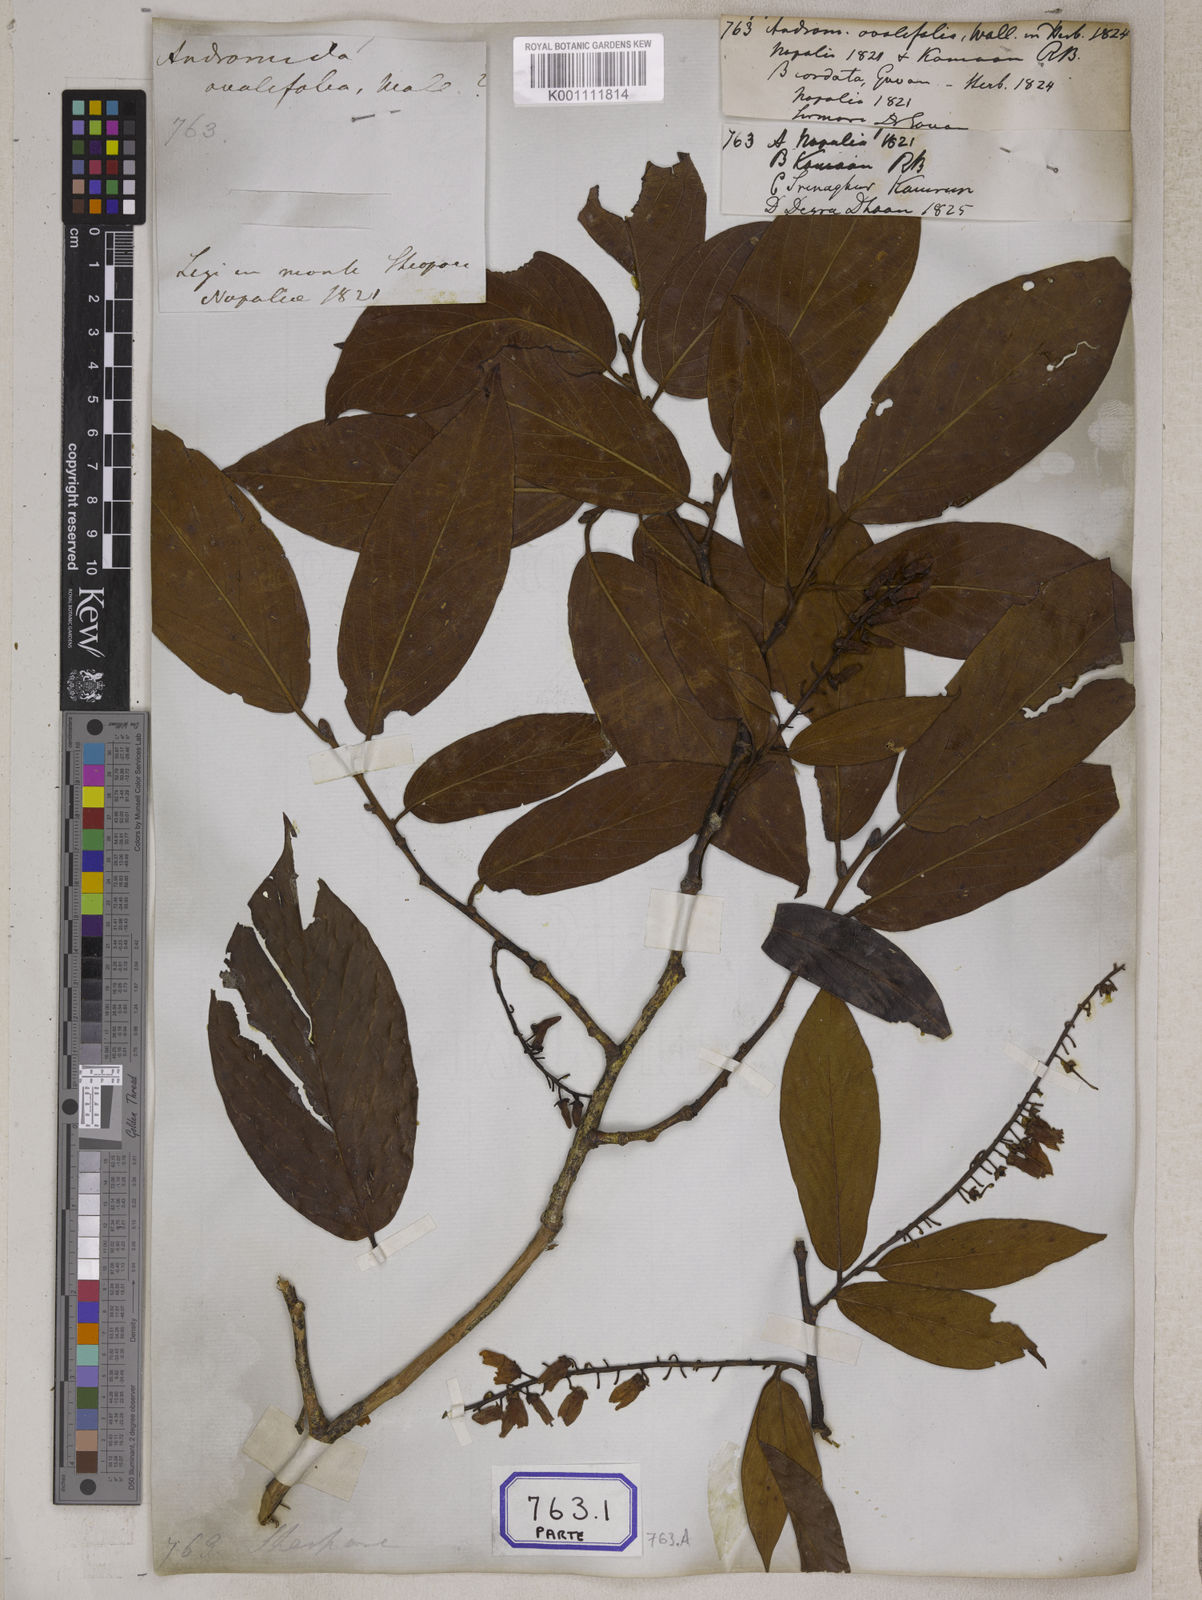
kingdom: Plantae
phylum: Tracheophyta
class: Magnoliopsida
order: Ericales
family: Ericaceae
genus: Lyonia
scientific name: Lyonia ovalifolia
